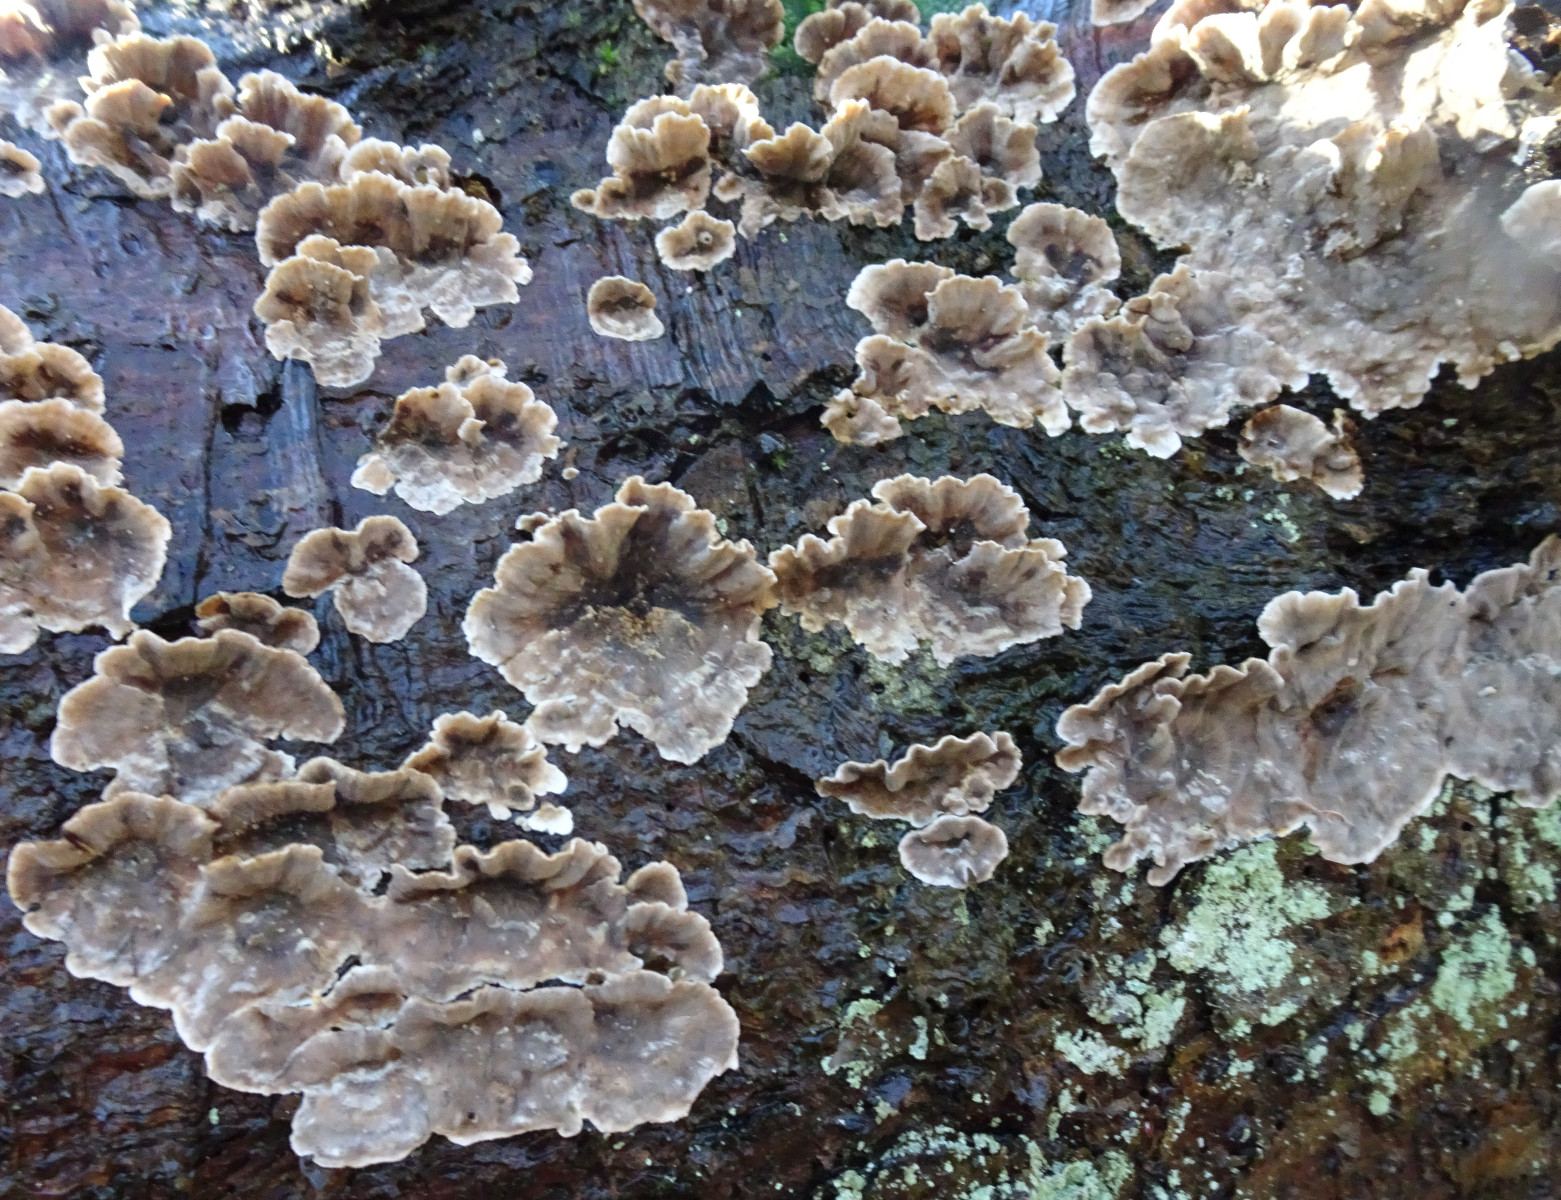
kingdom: Fungi
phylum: Basidiomycota
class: Agaricomycetes
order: Russulales
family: Echinodontiaceae
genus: Amylostereum
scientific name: Amylostereum
